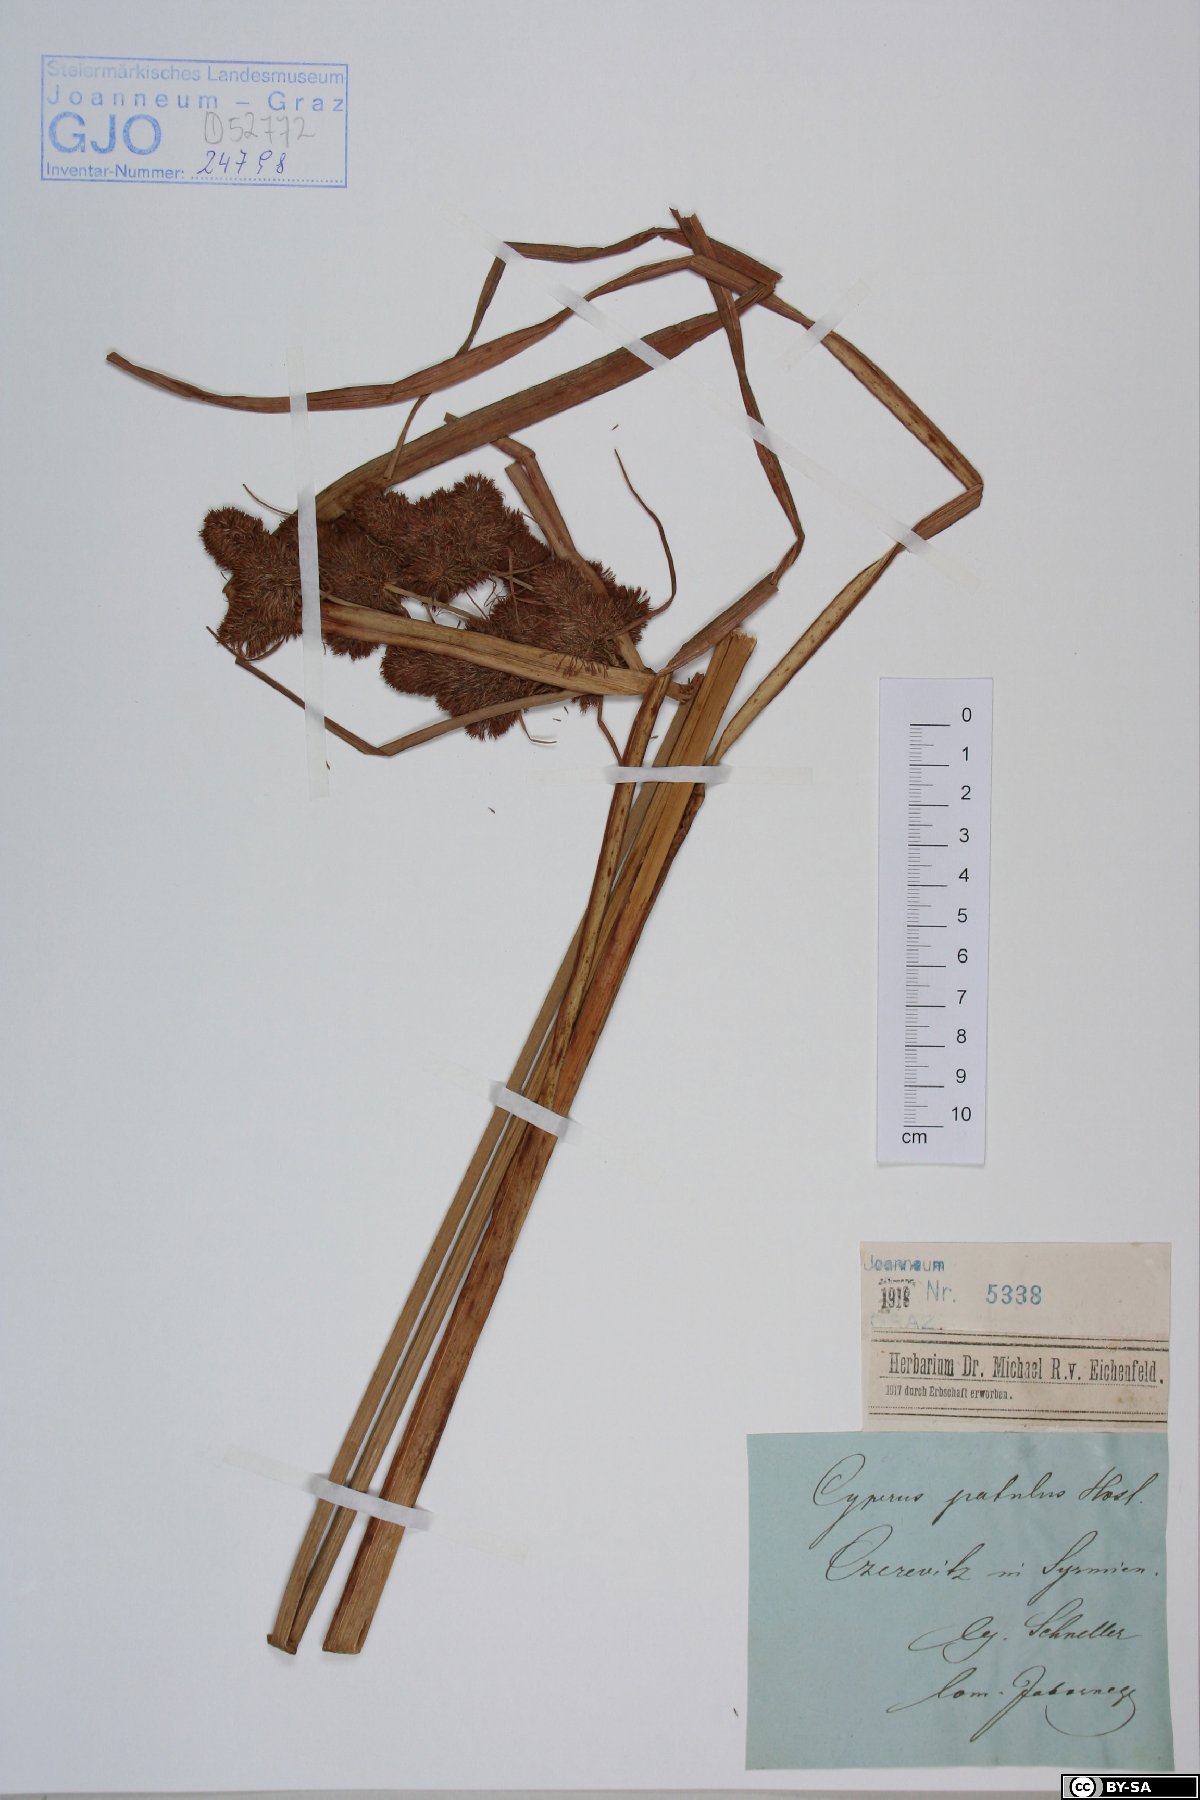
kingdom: Plantae
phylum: Tracheophyta
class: Liliopsida
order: Poales
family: Cyperaceae
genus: Cyperus
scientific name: Cyperus glaber
